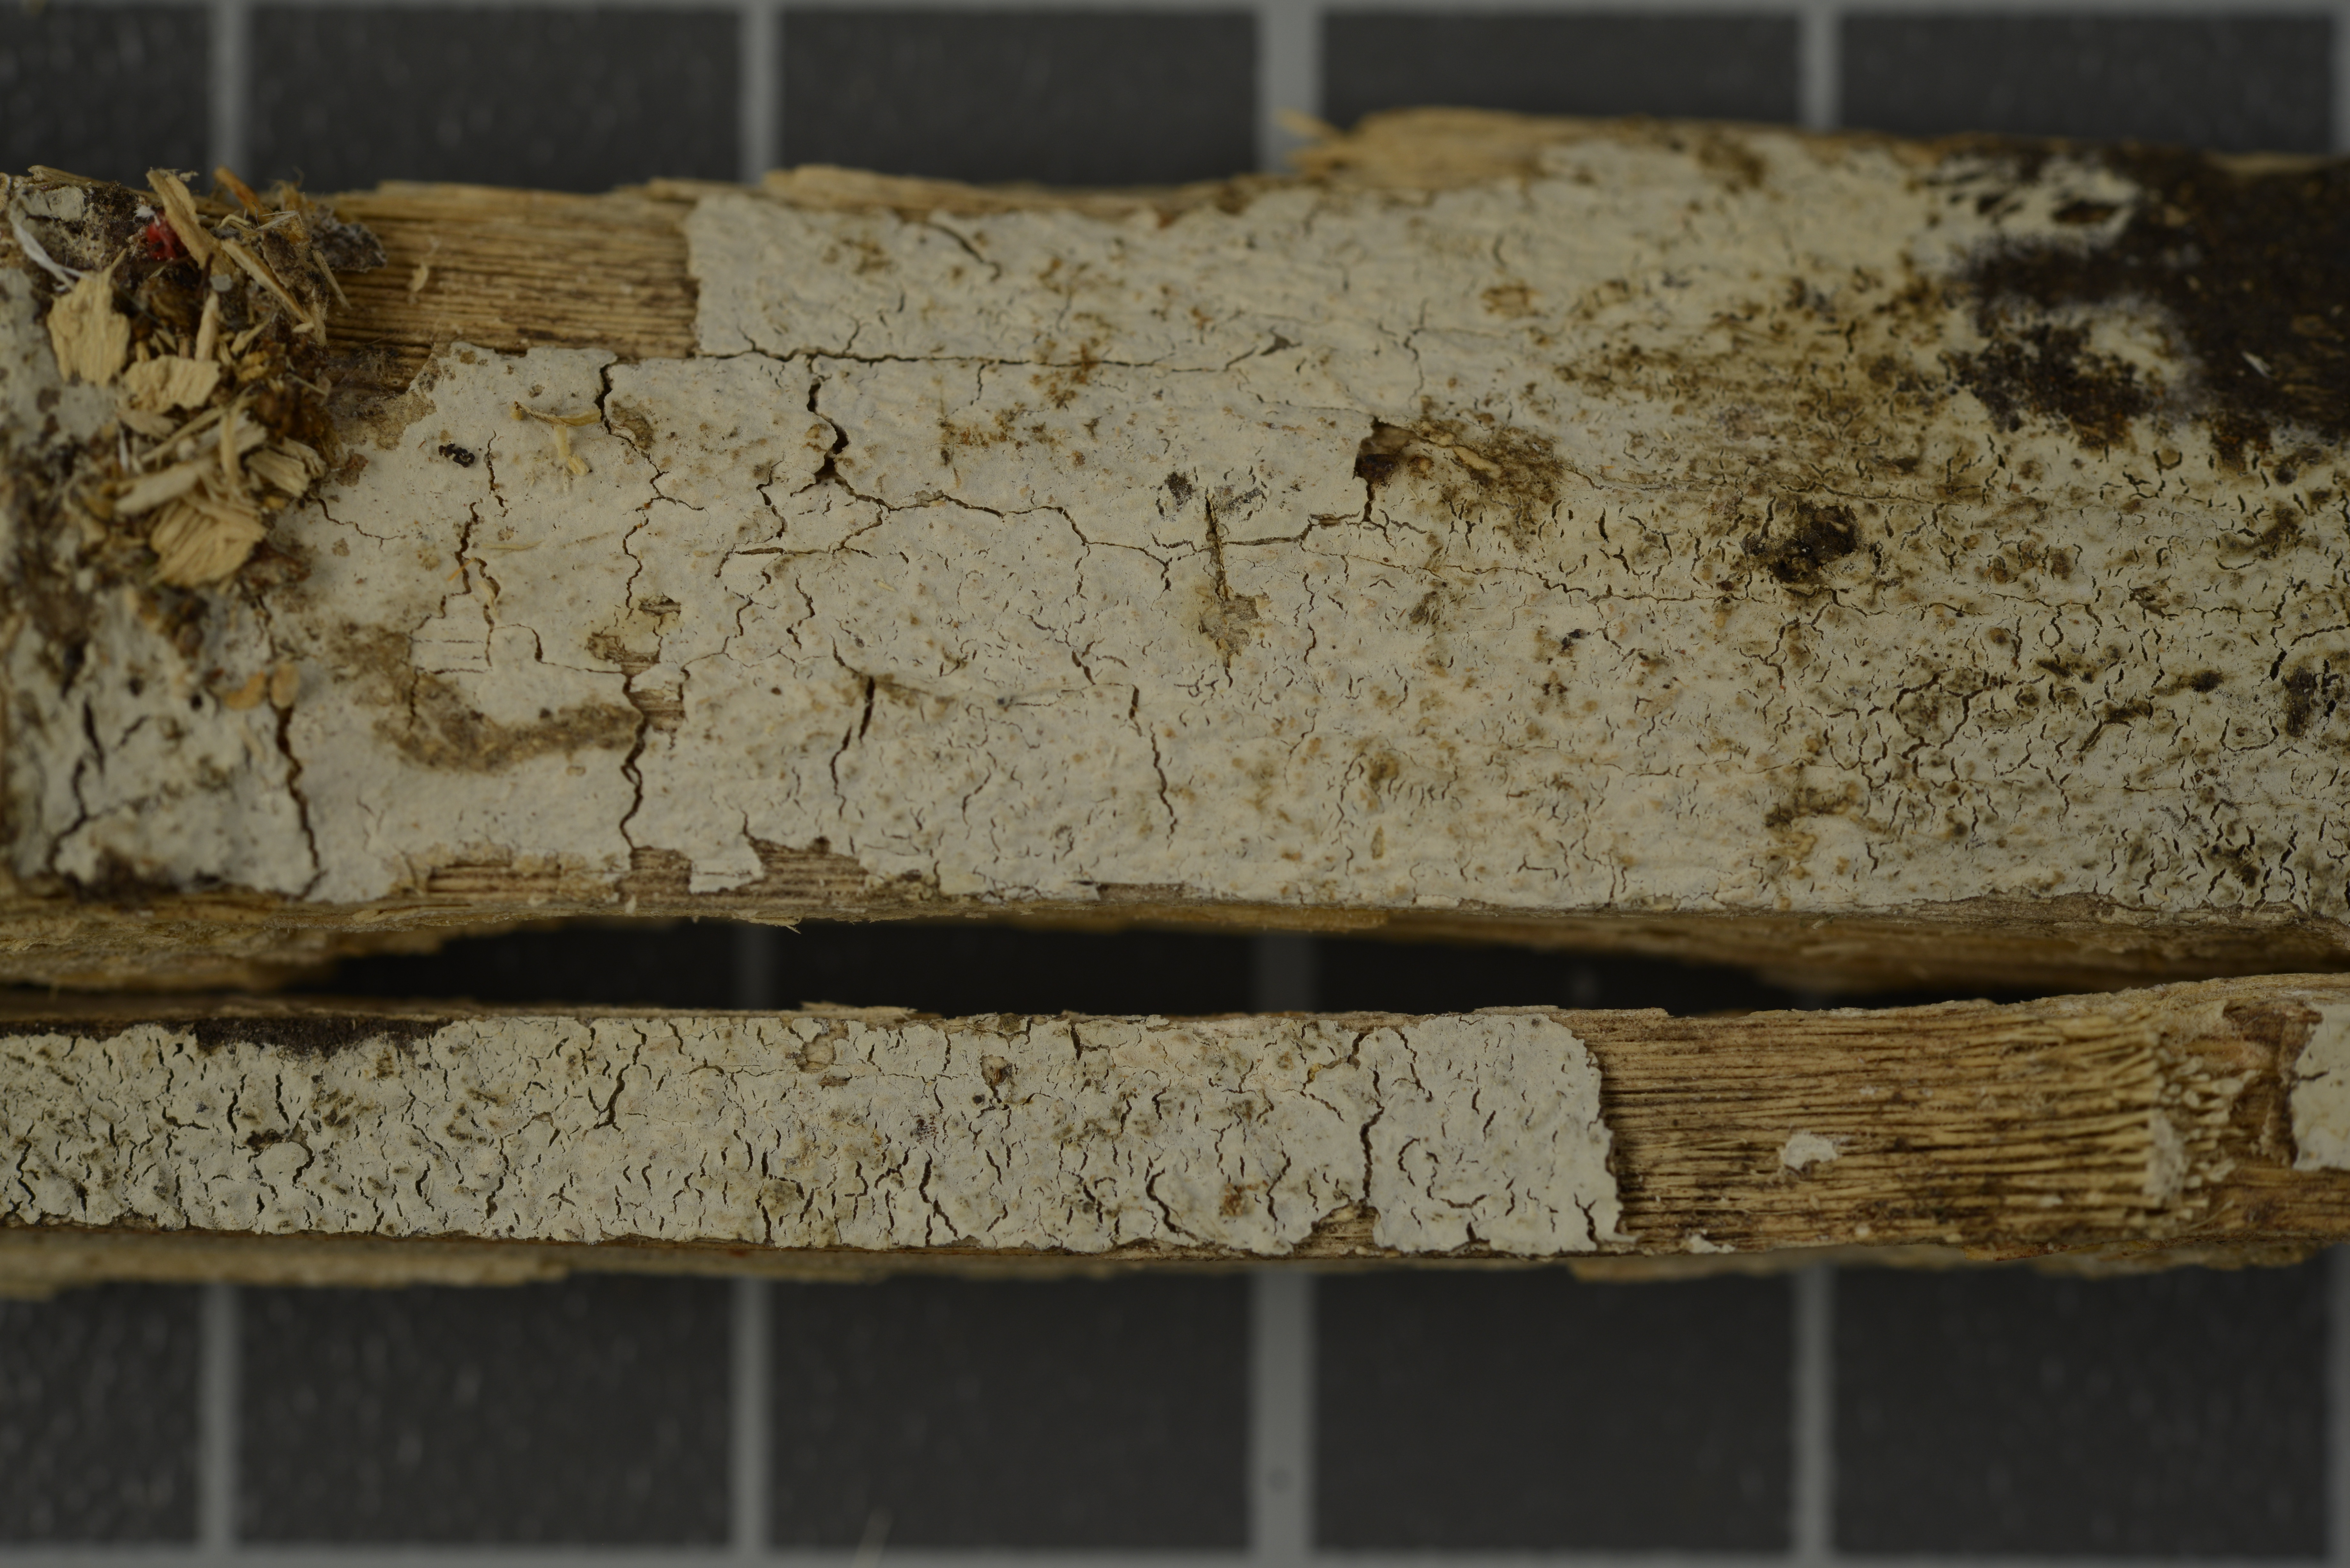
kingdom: Fungi
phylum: Basidiomycota
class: Agaricomycetes
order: Agaricales
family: Cyphellaceae
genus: Gloeocorticium
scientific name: Gloeocorticium cinerascens
